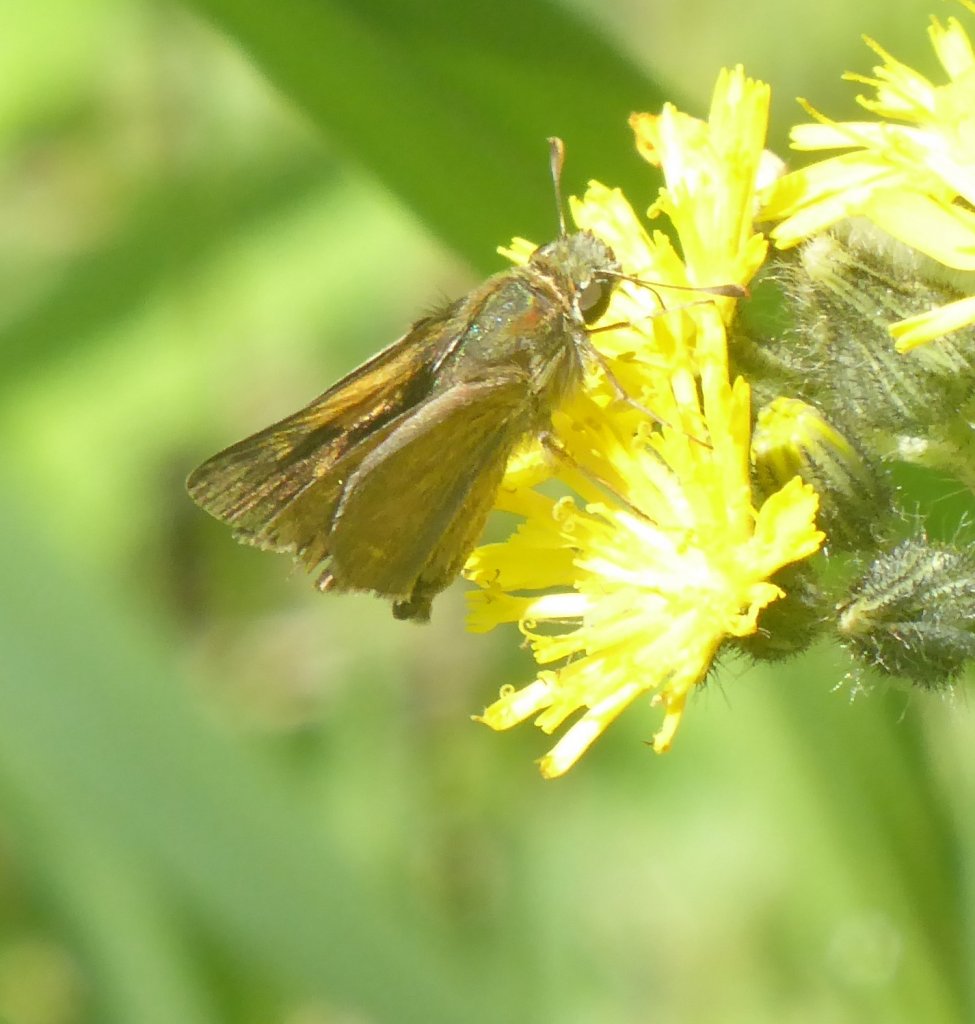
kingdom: Animalia
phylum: Arthropoda
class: Insecta
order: Lepidoptera
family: Hesperiidae
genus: Polites
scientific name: Polites themistocles
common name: Tawny-edged Skipper
